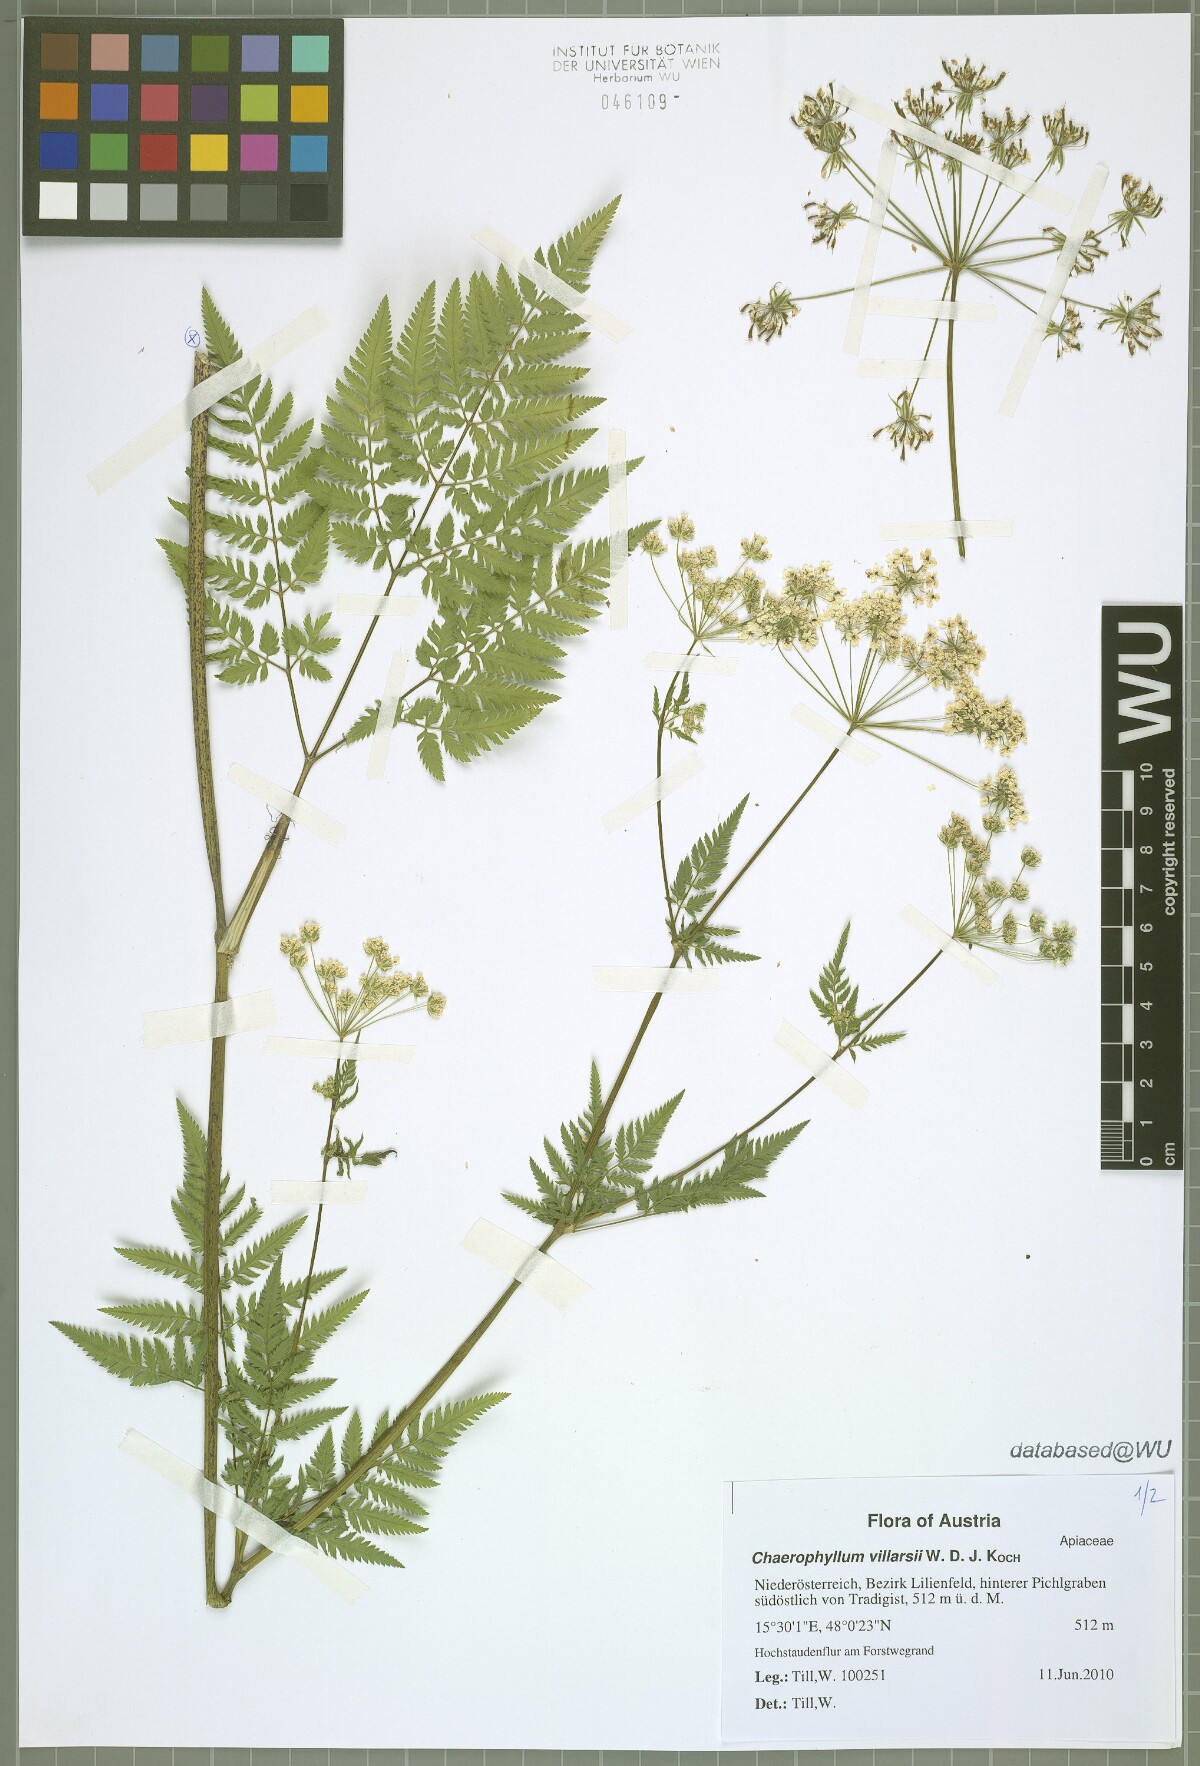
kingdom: Plantae
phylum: Tracheophyta
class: Magnoliopsida
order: Apiales
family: Apiaceae
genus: Chaerophyllum
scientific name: Chaerophyllum villarsii
